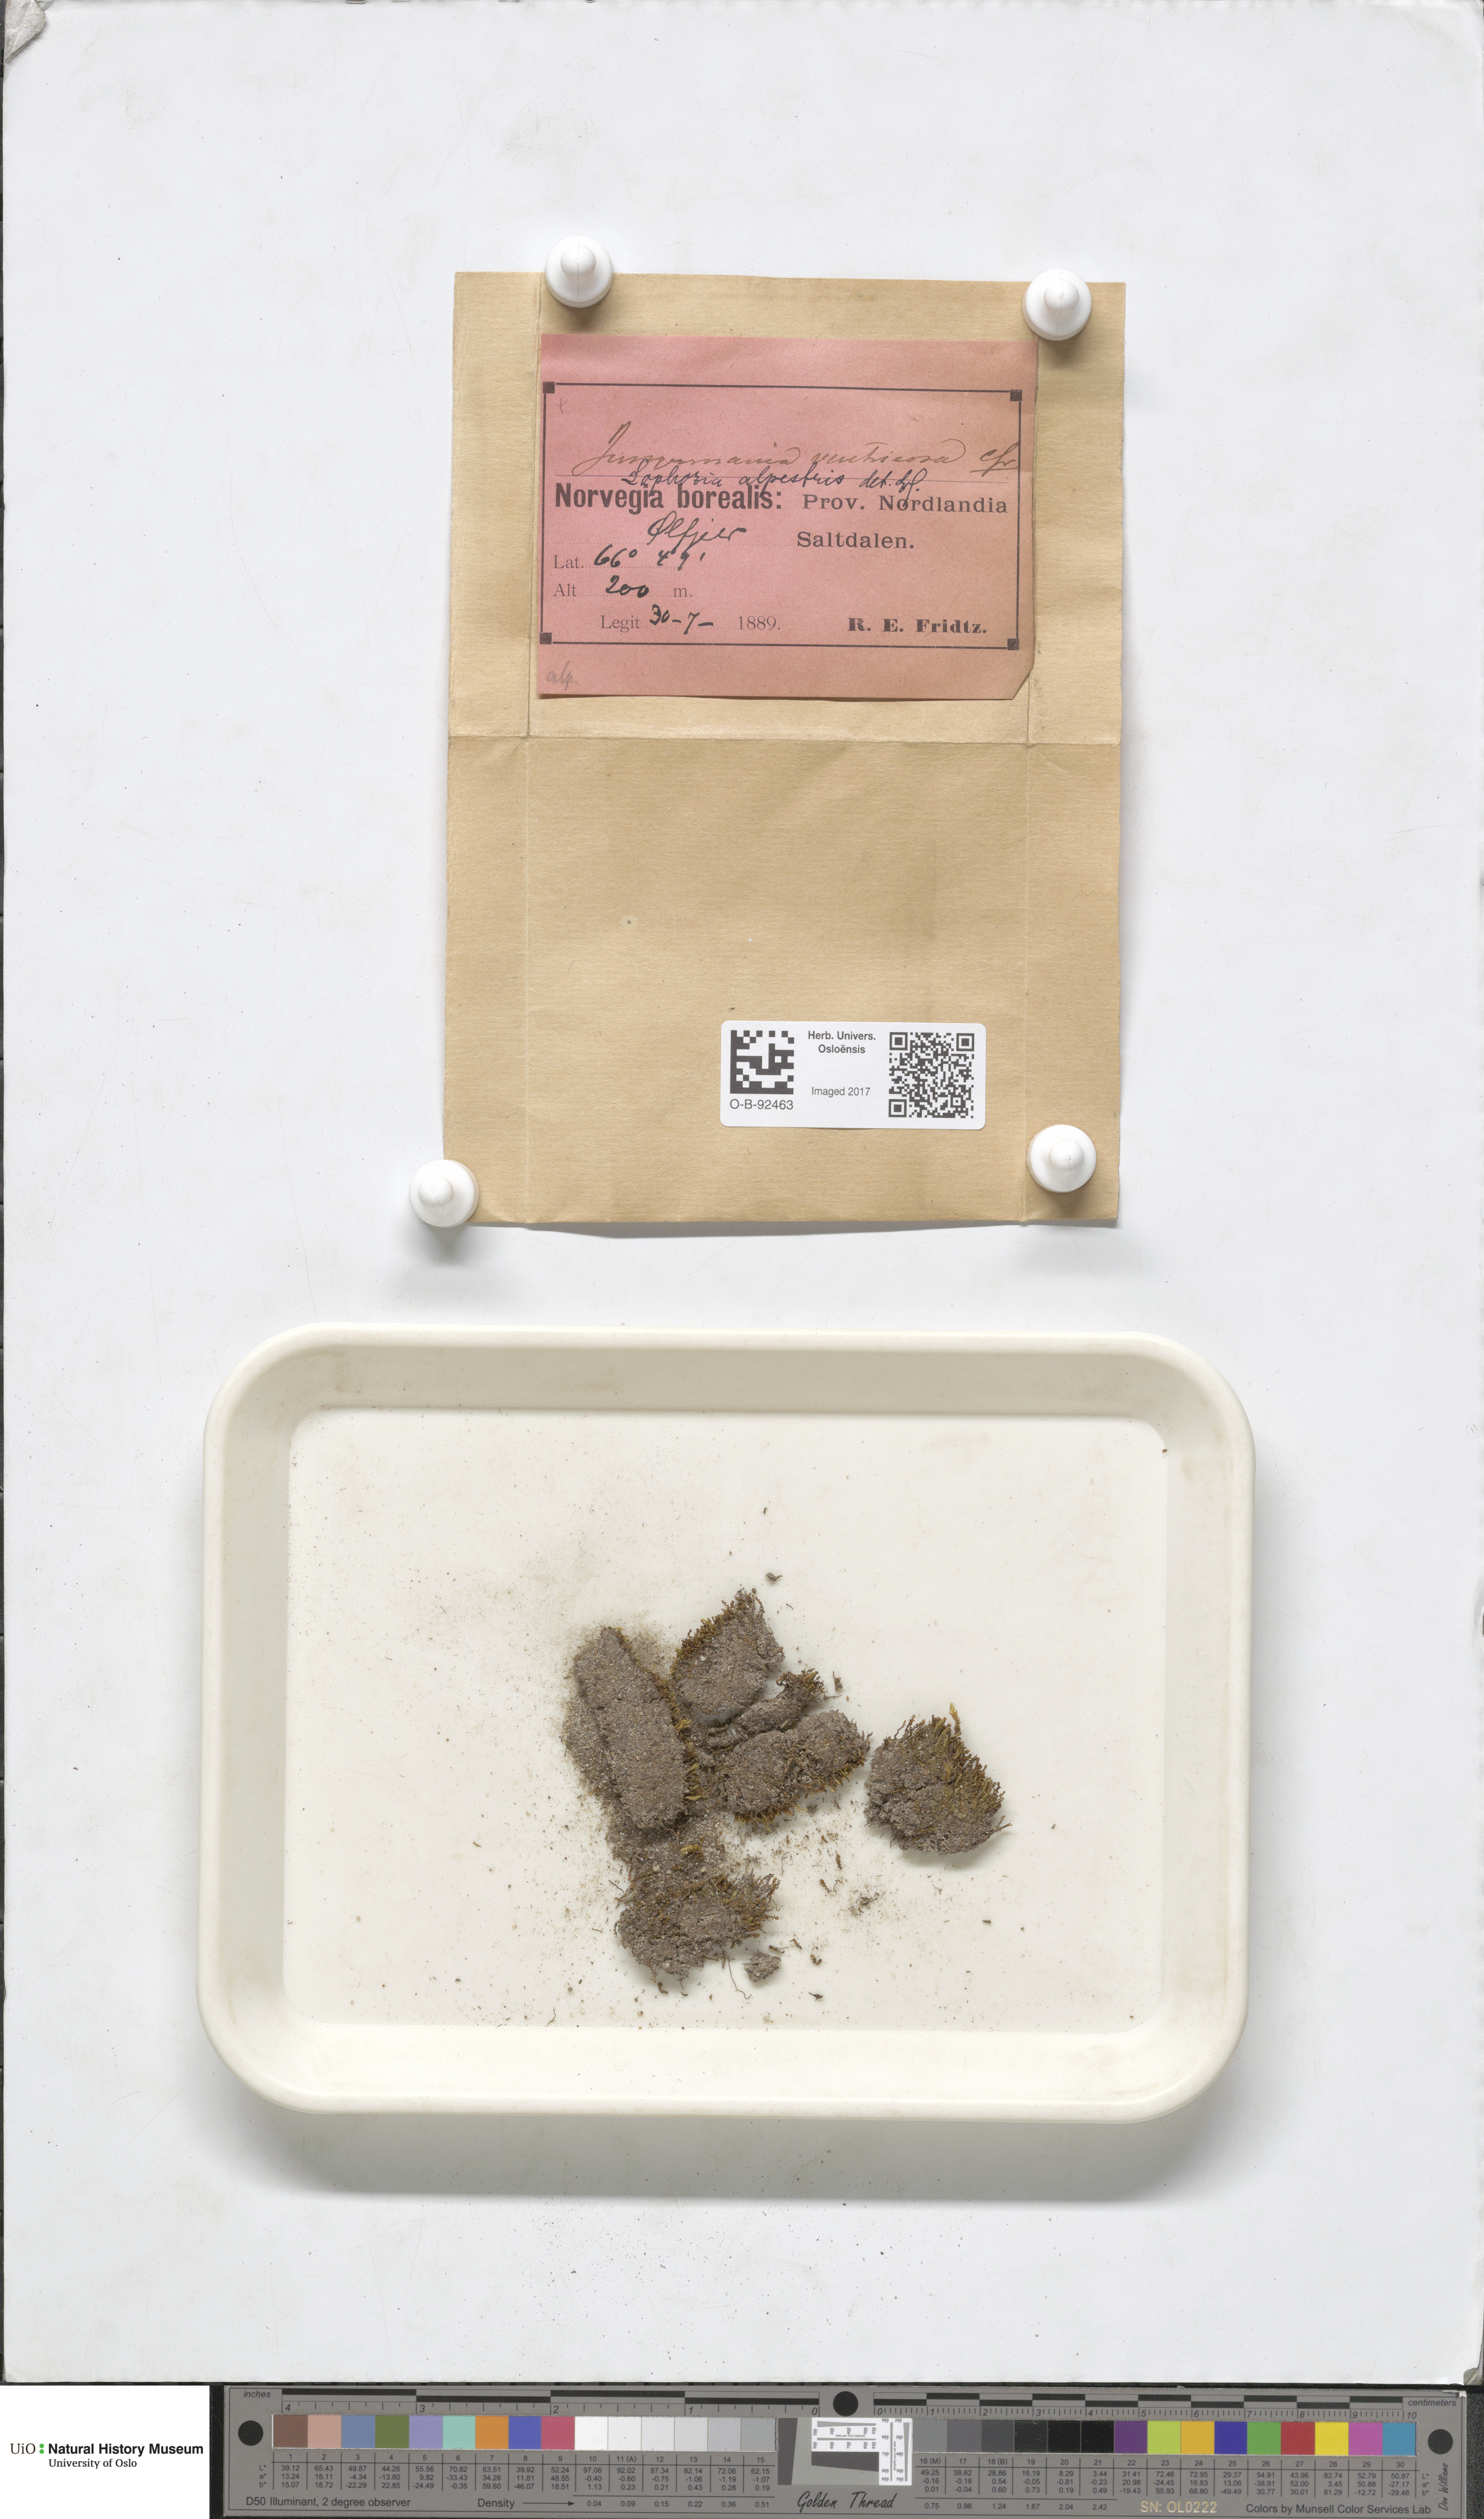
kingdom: Plantae
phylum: Marchantiophyta
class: Jungermanniopsida
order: Jungermanniales
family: Anastrophyllaceae
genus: Barbilophozia
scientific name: Barbilophozia sudetica
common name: Hill notchwort
